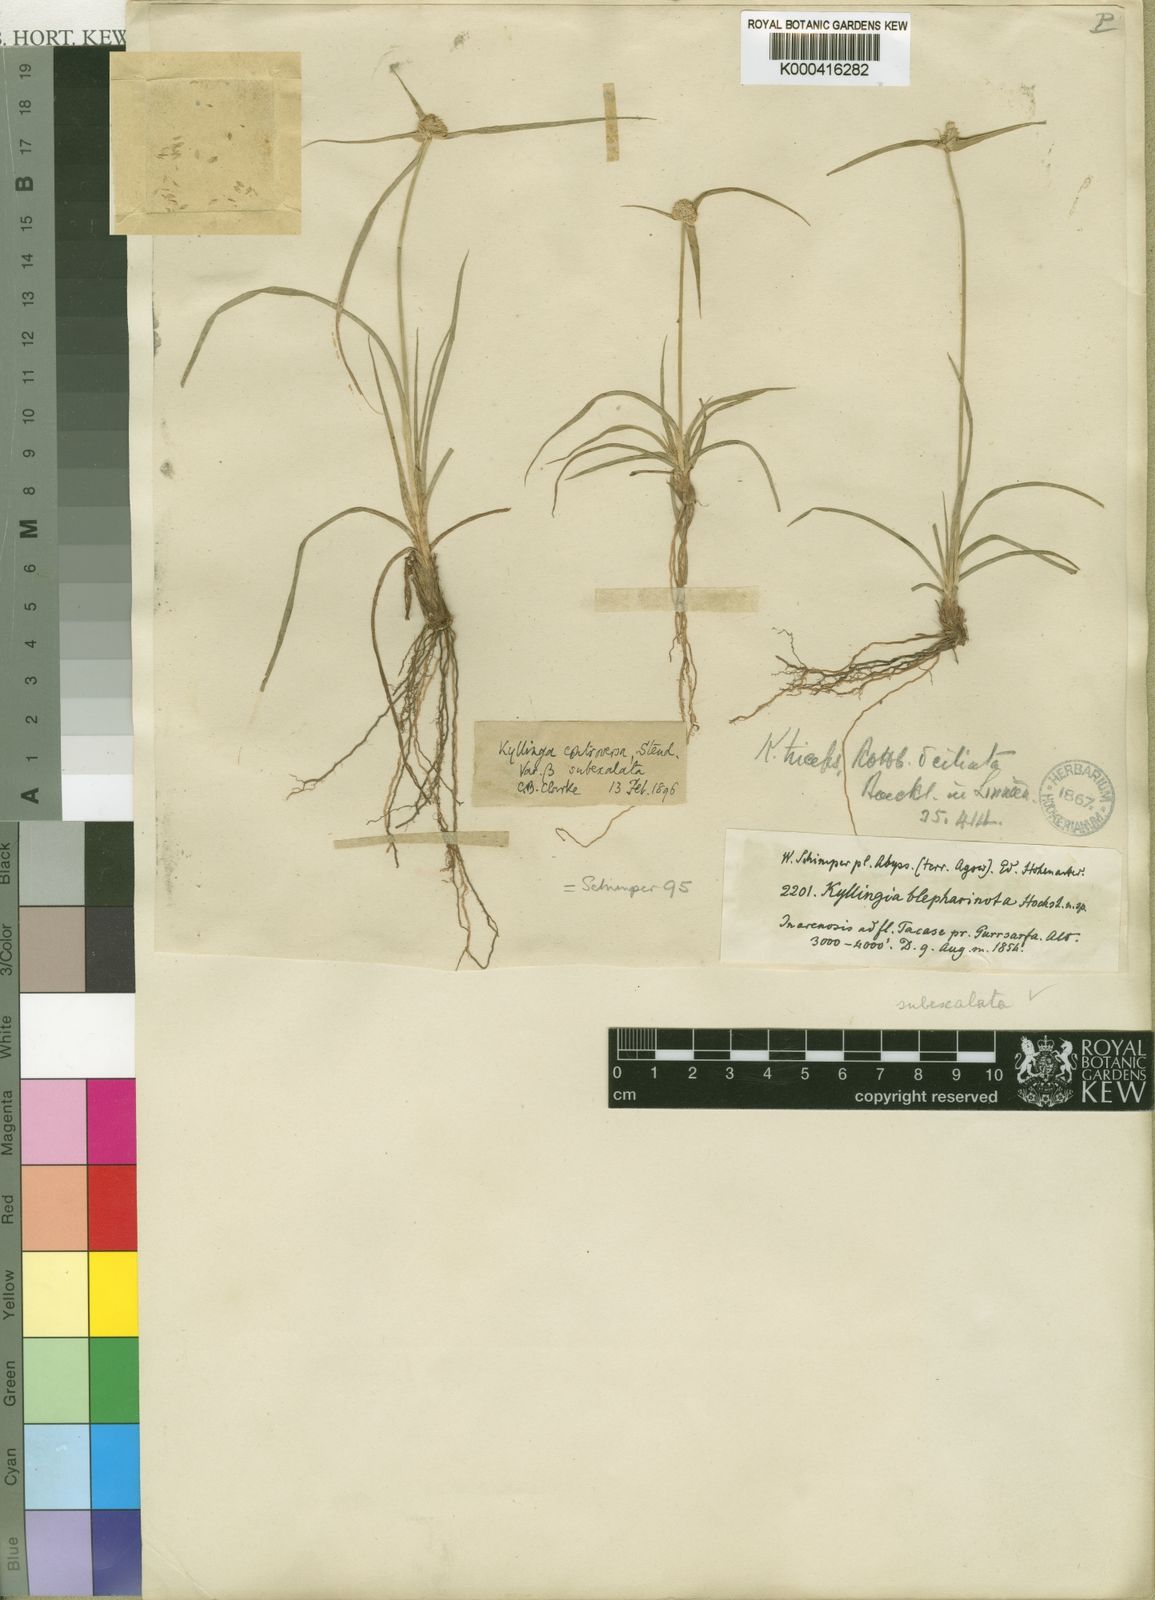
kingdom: Plantae
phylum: Tracheophyta
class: Liliopsida
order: Poales
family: Cyperaceae
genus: Cyperus
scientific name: Cyperus welwitschii
